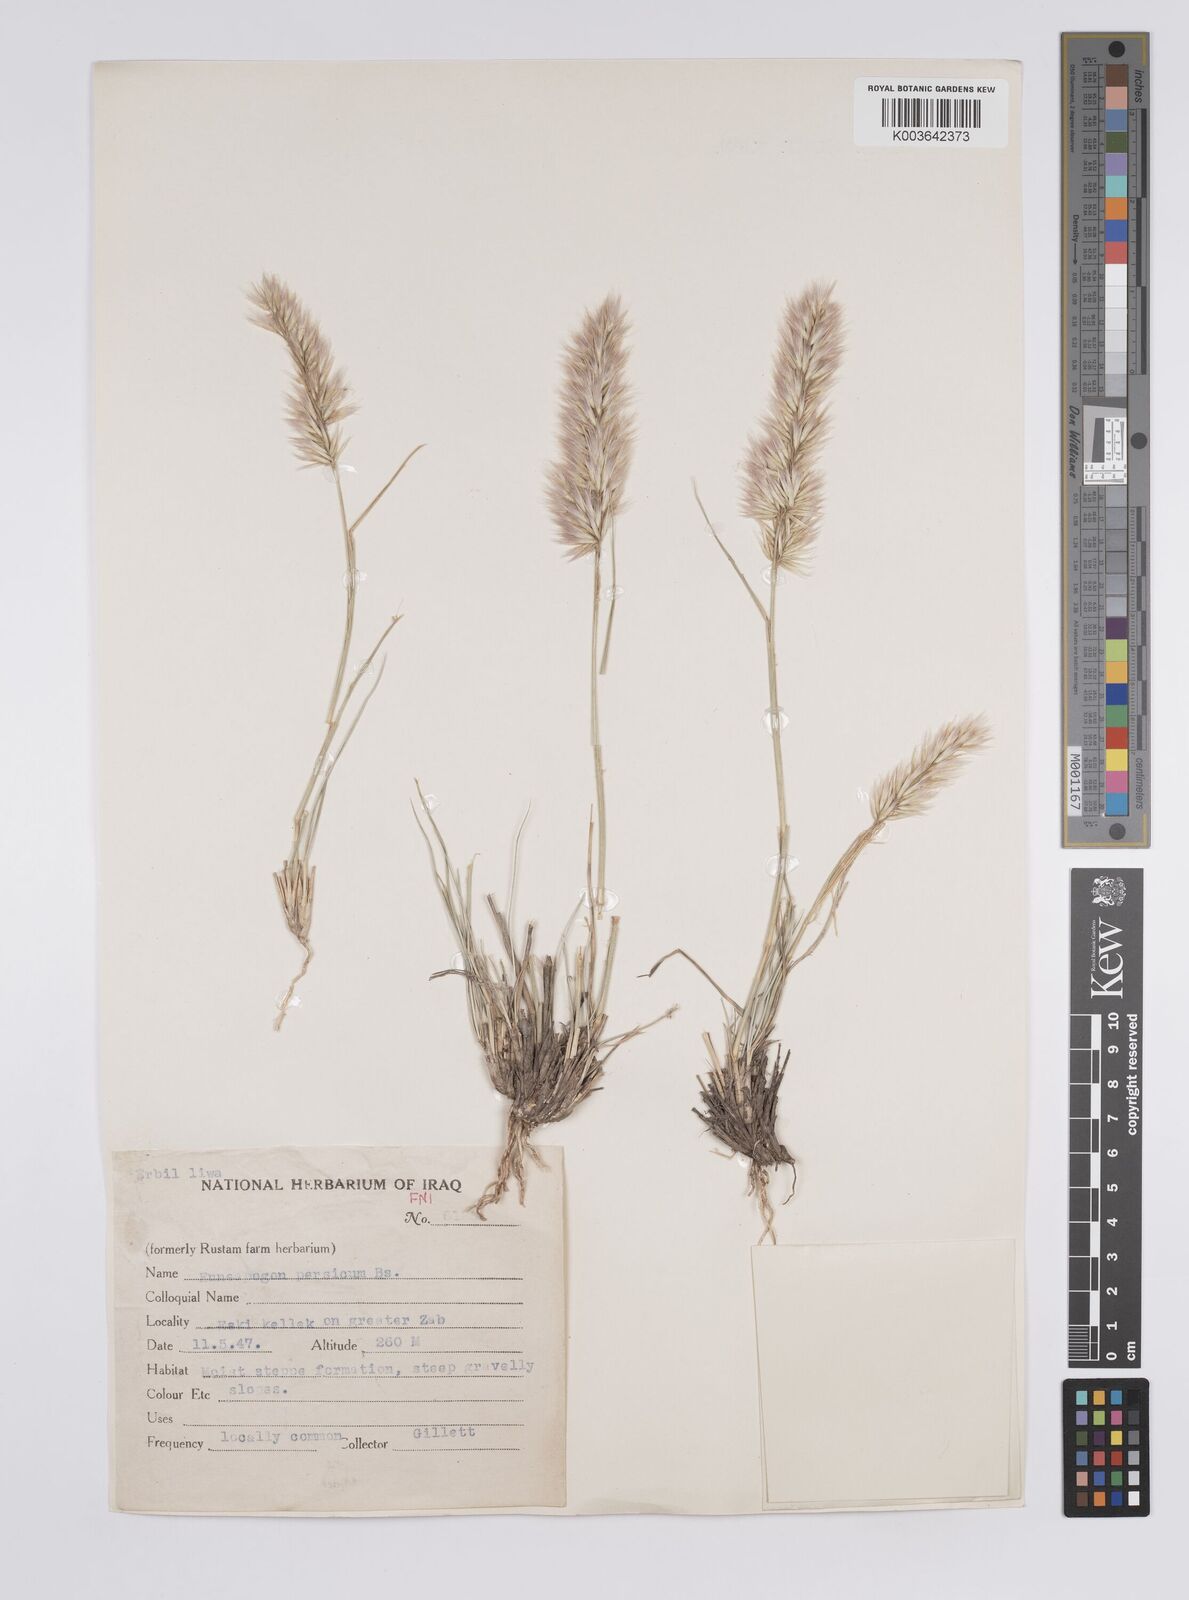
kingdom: Plantae
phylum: Tracheophyta
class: Liliopsida
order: Poales
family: Poaceae
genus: Enneapogon
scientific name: Enneapogon persicus
